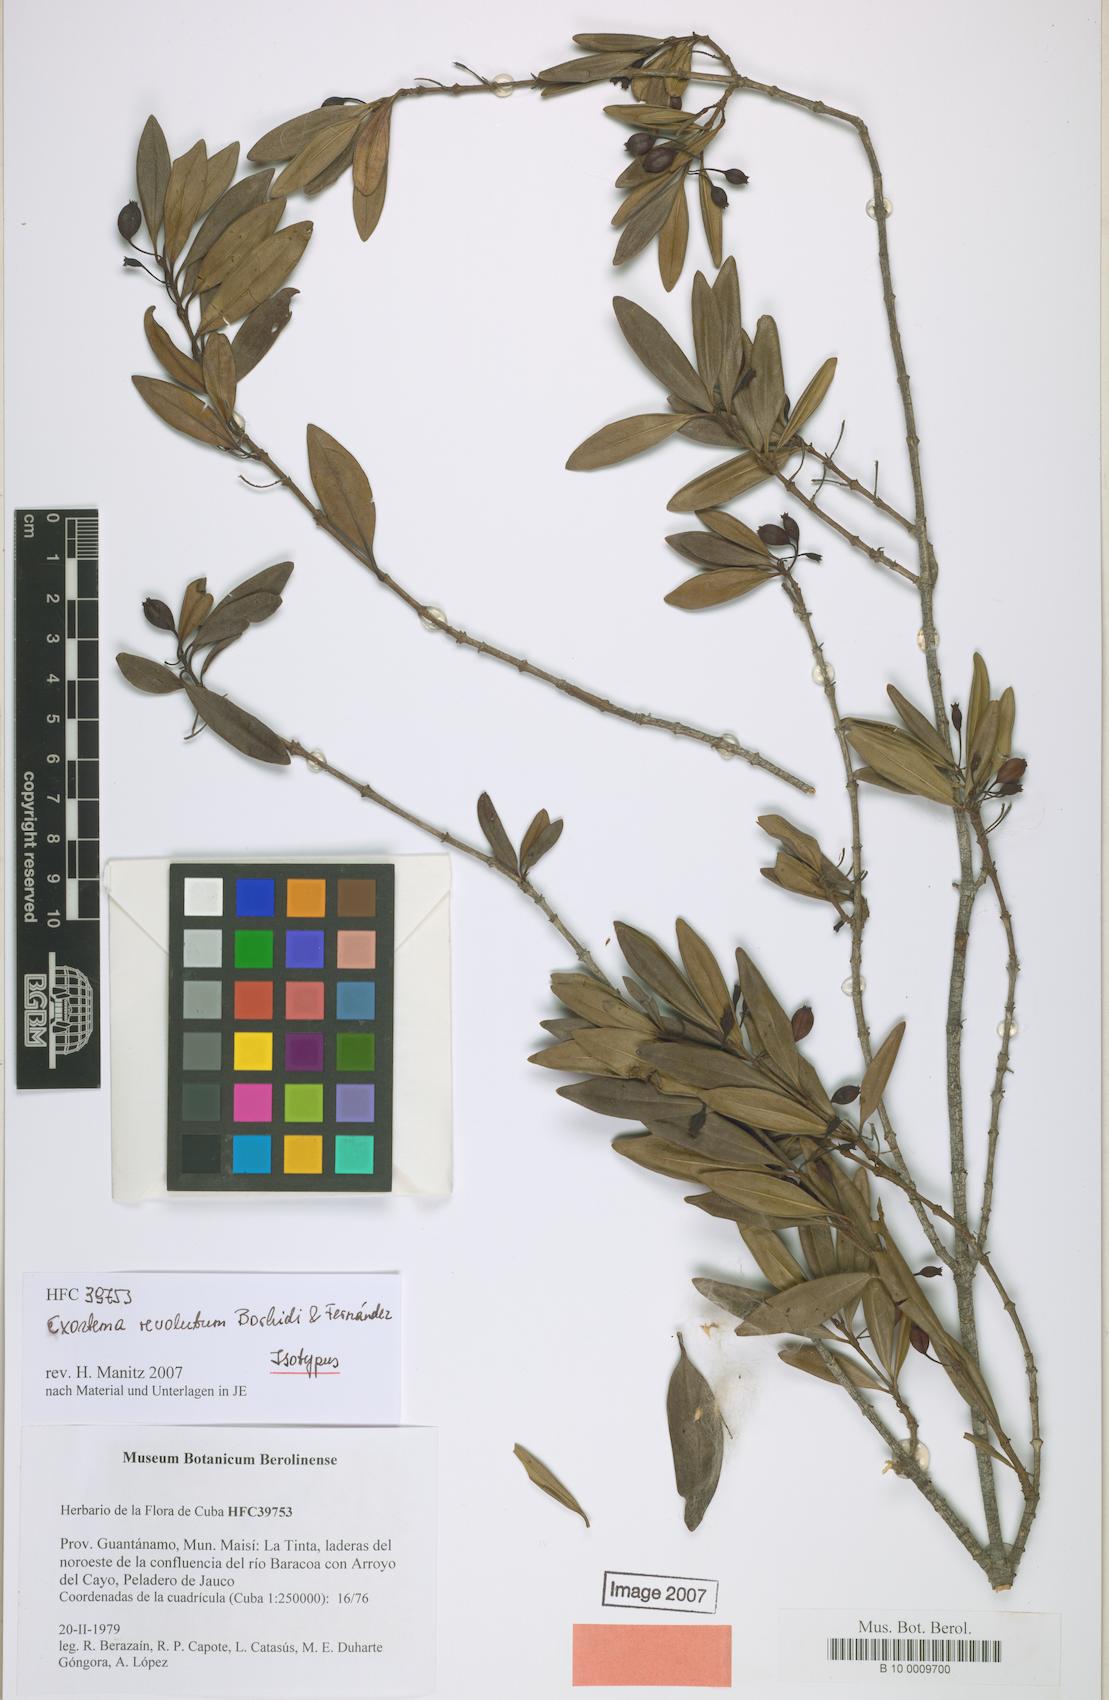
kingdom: Plantae
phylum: Tracheophyta
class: Magnoliopsida
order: Gentianales
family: Rubiaceae
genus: Exostema
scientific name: Exostema revolutum
